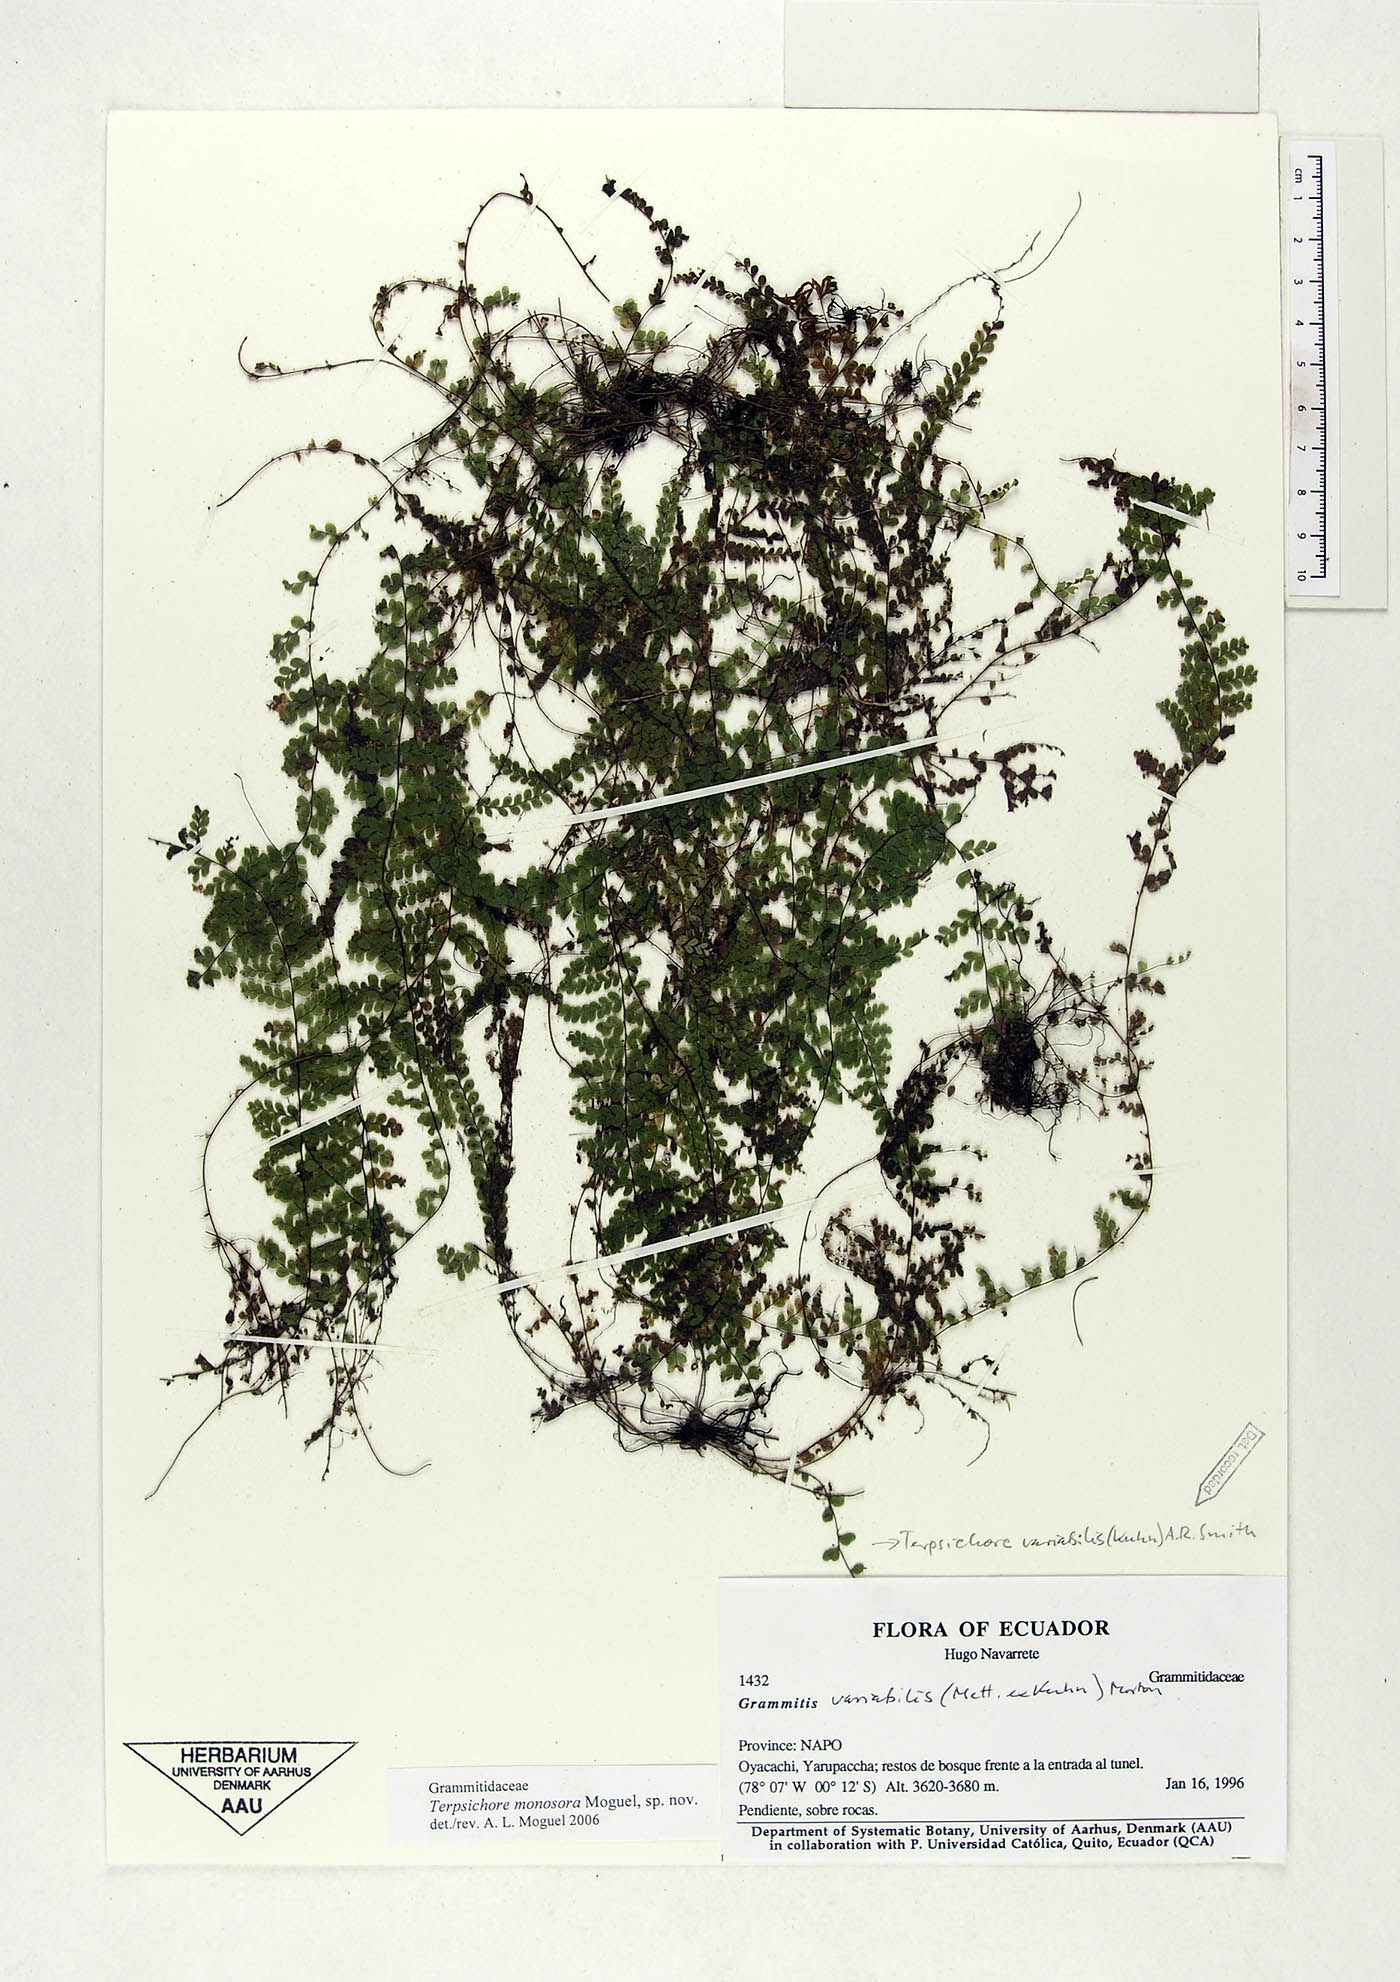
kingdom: Plantae
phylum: Tracheophyta
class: Polypodiopsida
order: Polypodiales
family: Polypodiaceae
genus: Alansmia
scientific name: Alansmia monosora
